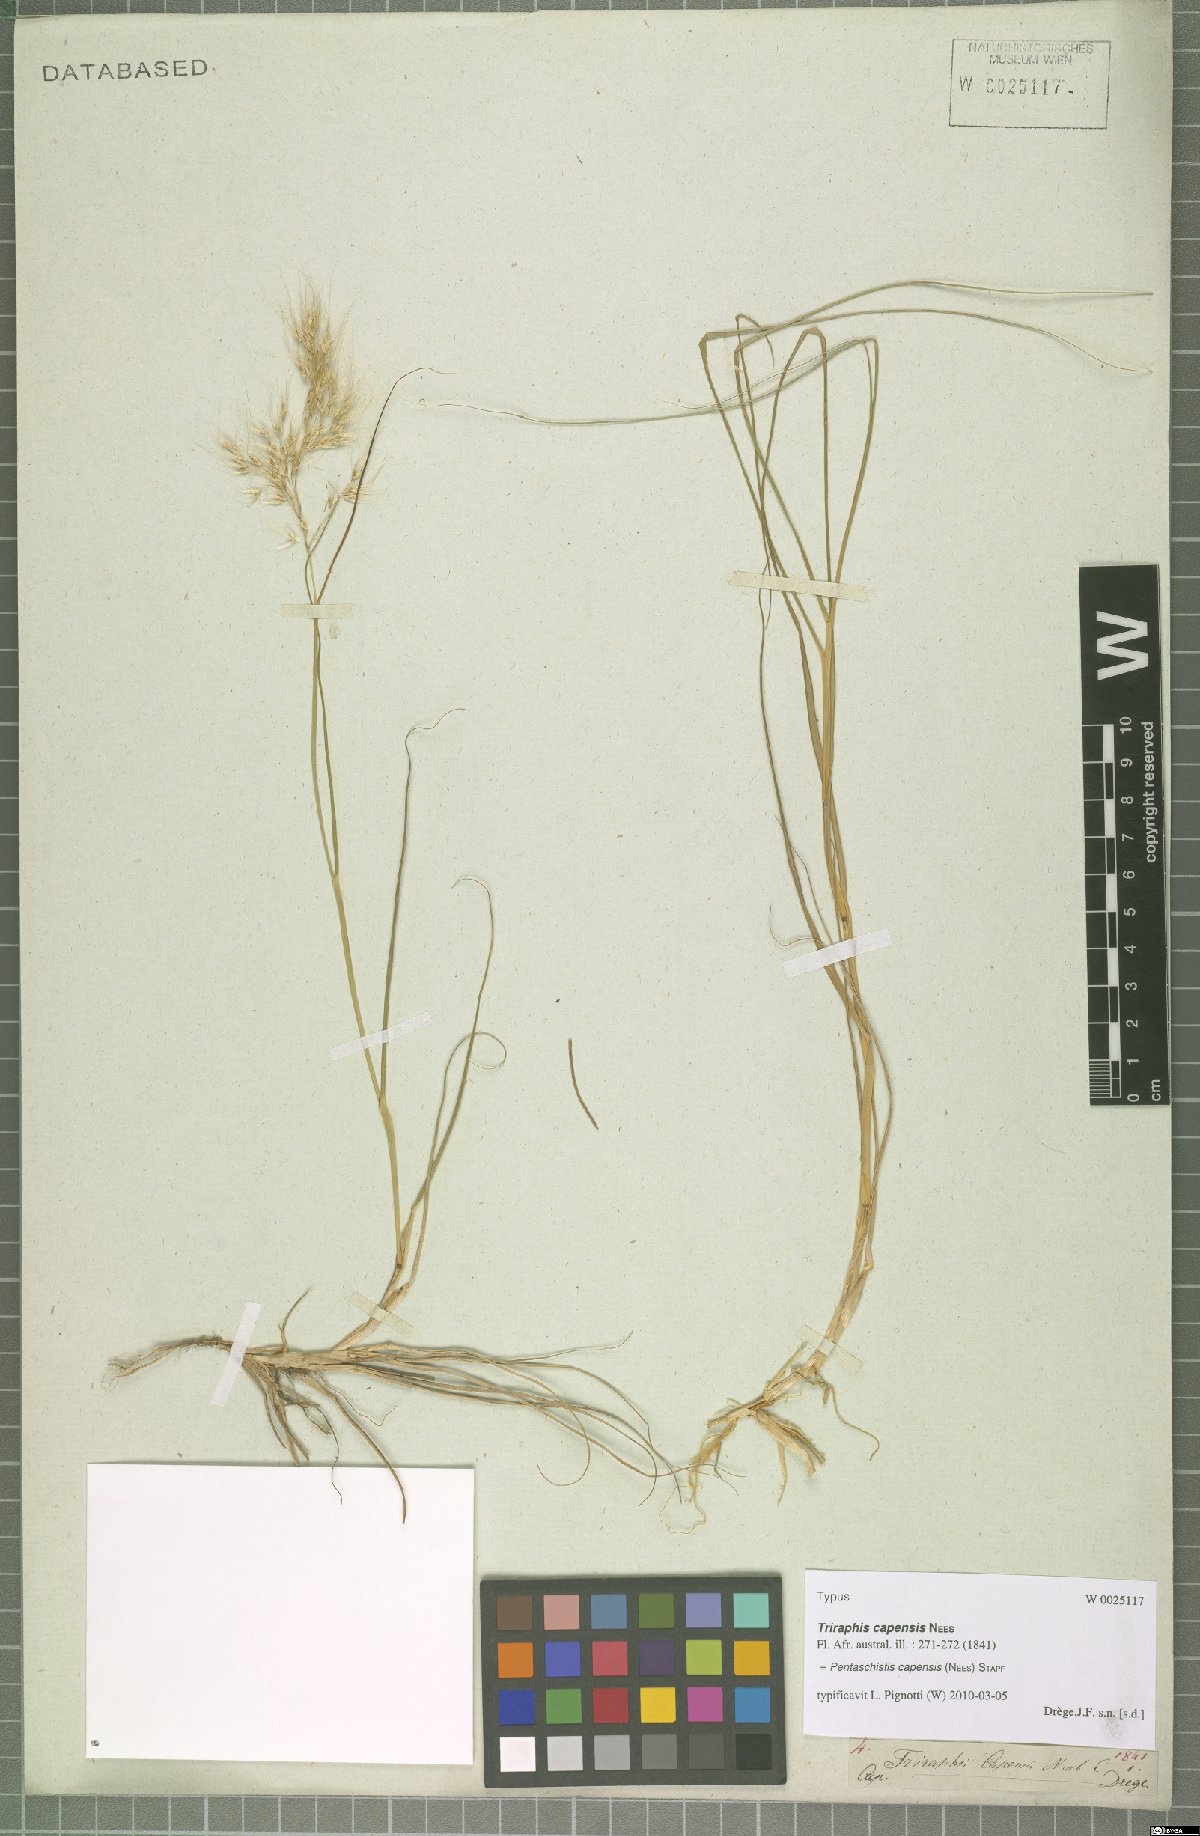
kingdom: Plantae
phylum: Tracheophyta
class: Liliopsida
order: Poales
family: Poaceae
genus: Pentameris
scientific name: Pentameris capensis
